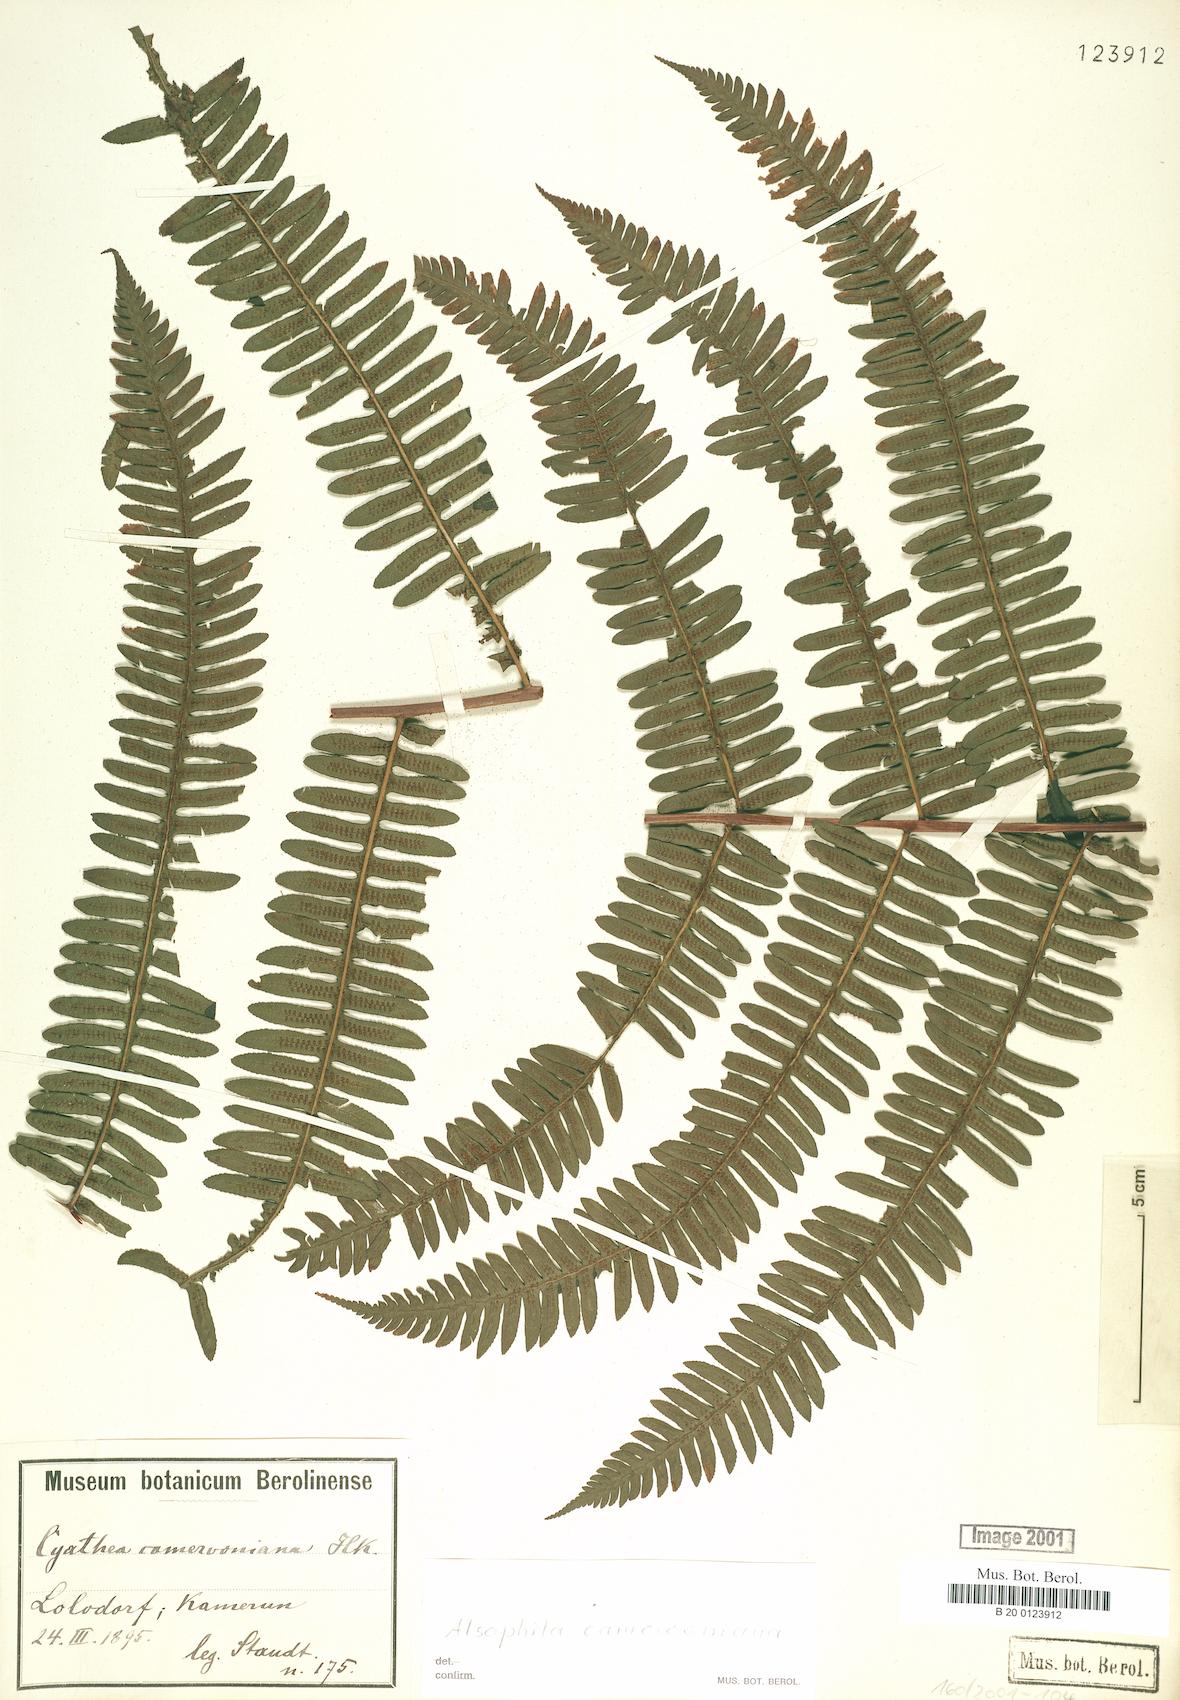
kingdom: Plantae
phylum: Tracheophyta
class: Polypodiopsida
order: Cyatheales
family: Cyatheaceae
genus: Alsophila
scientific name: Alsophila camerooniana
